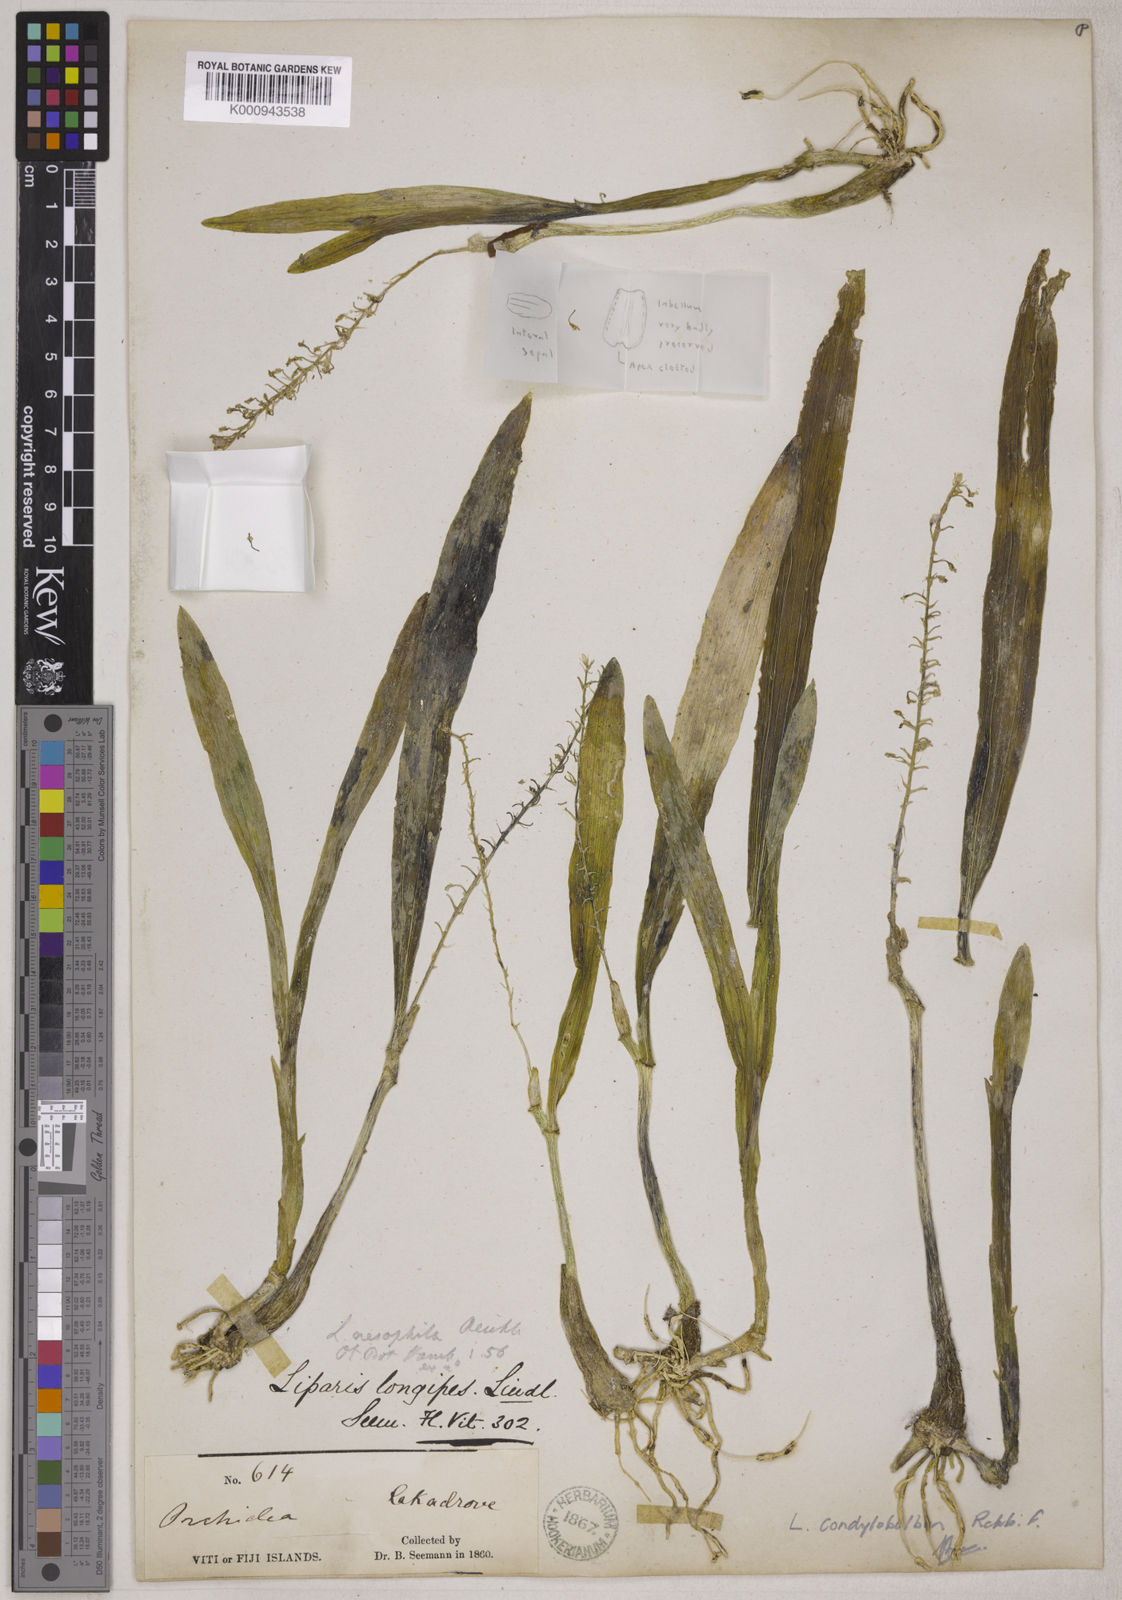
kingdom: Plantae
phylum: Tracheophyta
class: Liliopsida
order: Asparagales
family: Orchidaceae
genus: Liparis
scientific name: Liparis condylobulbon
